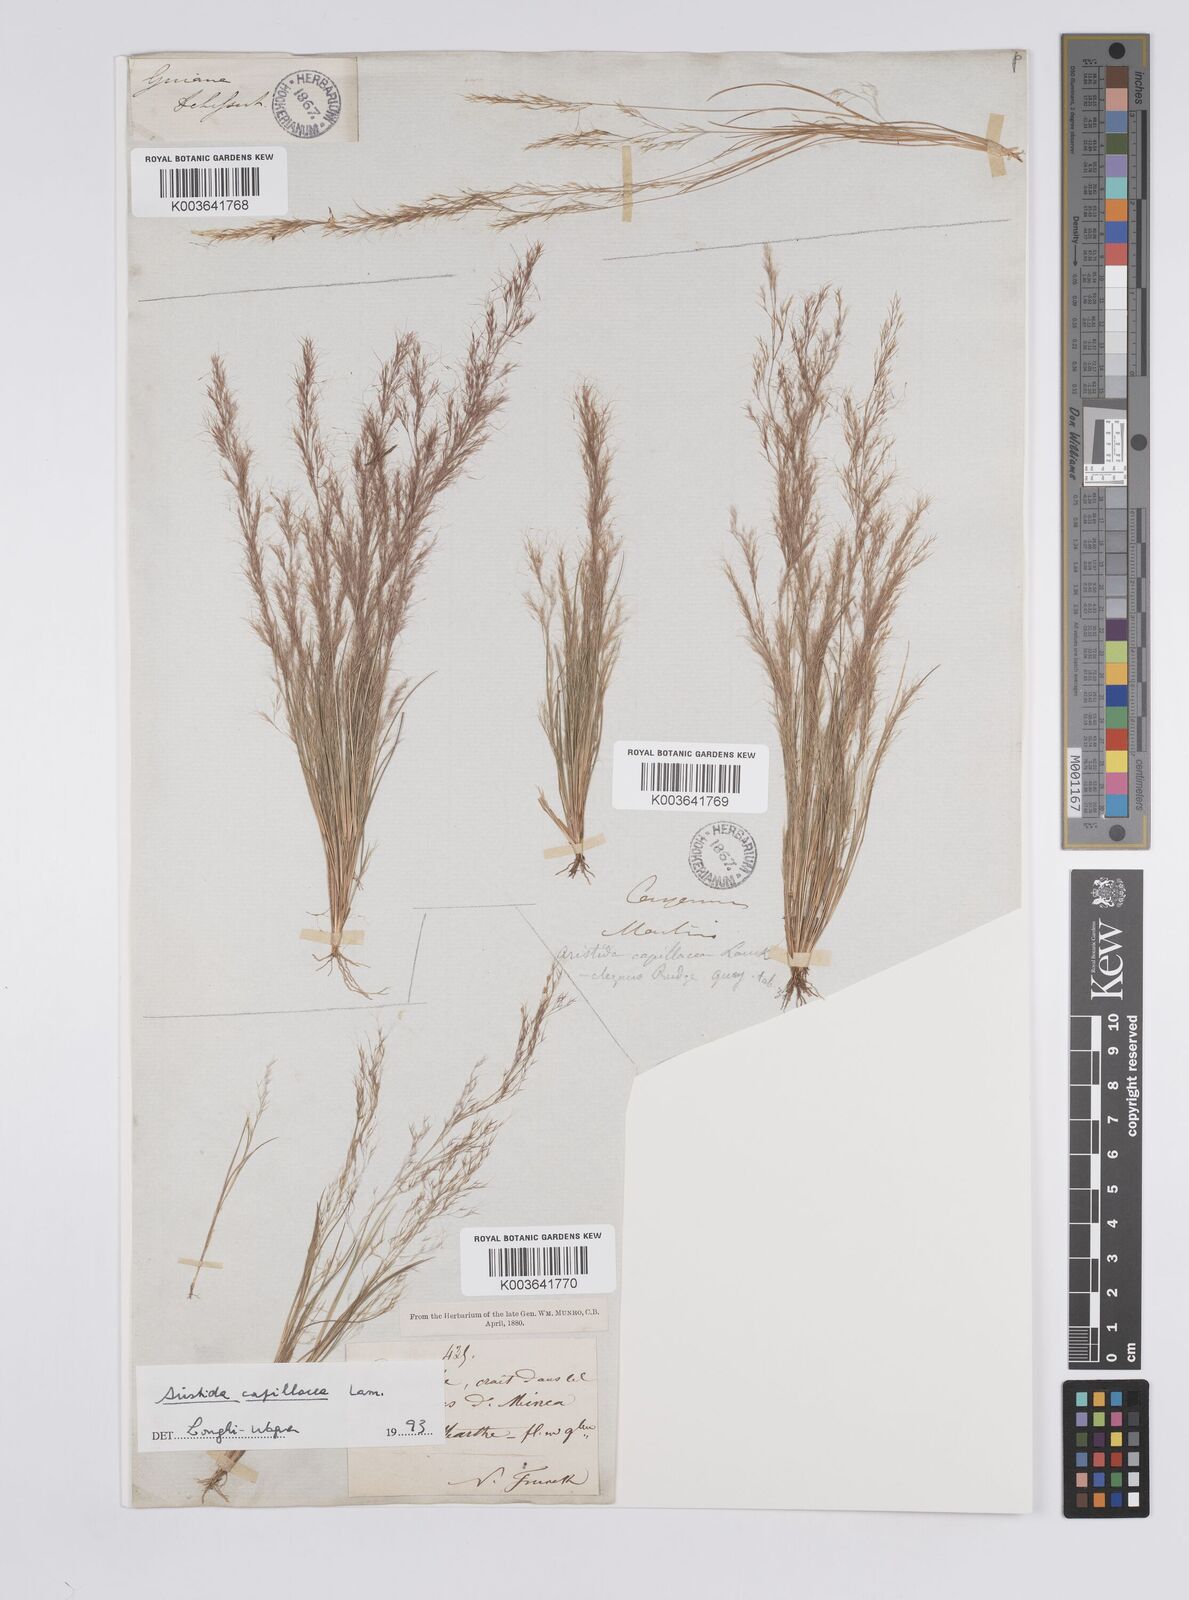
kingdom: Plantae
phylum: Tracheophyta
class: Liliopsida
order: Poales
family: Poaceae
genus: Aristida
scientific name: Aristida capillacea
